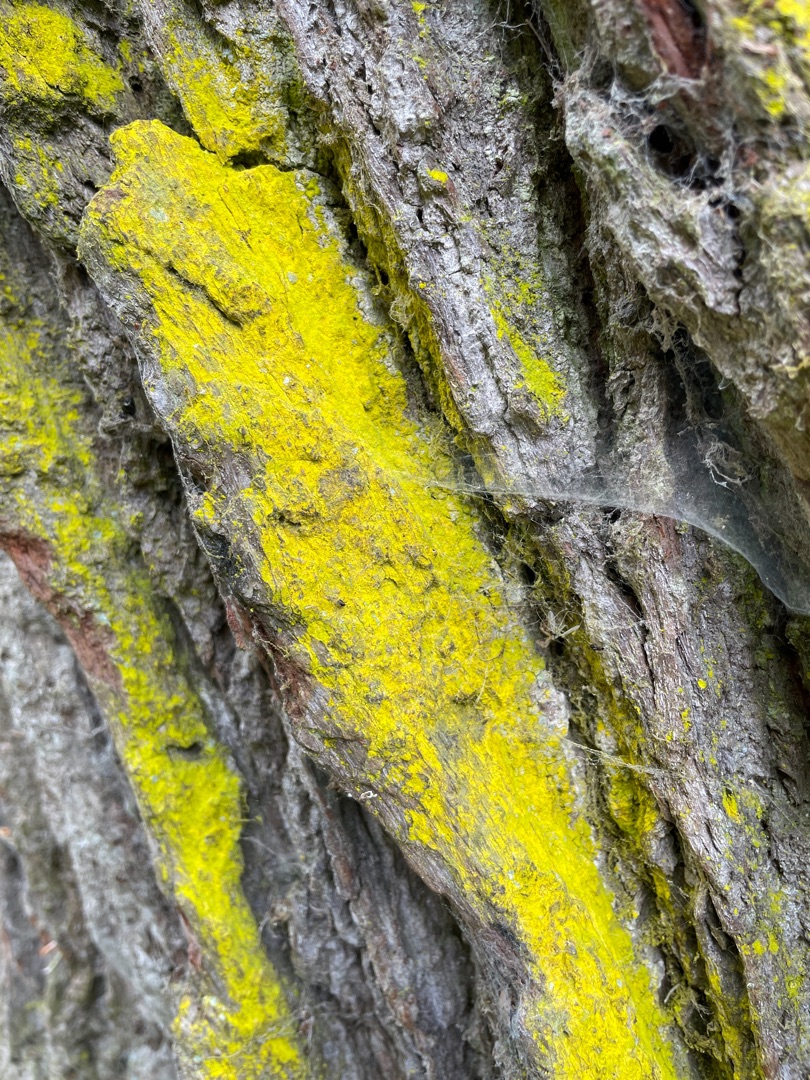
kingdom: Fungi
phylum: Ascomycota
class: Arthoniomycetes
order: Arthoniales
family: Chrysotrichaceae
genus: Chrysothrix
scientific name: Chrysothrix candelaris
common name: Gul støvlav
